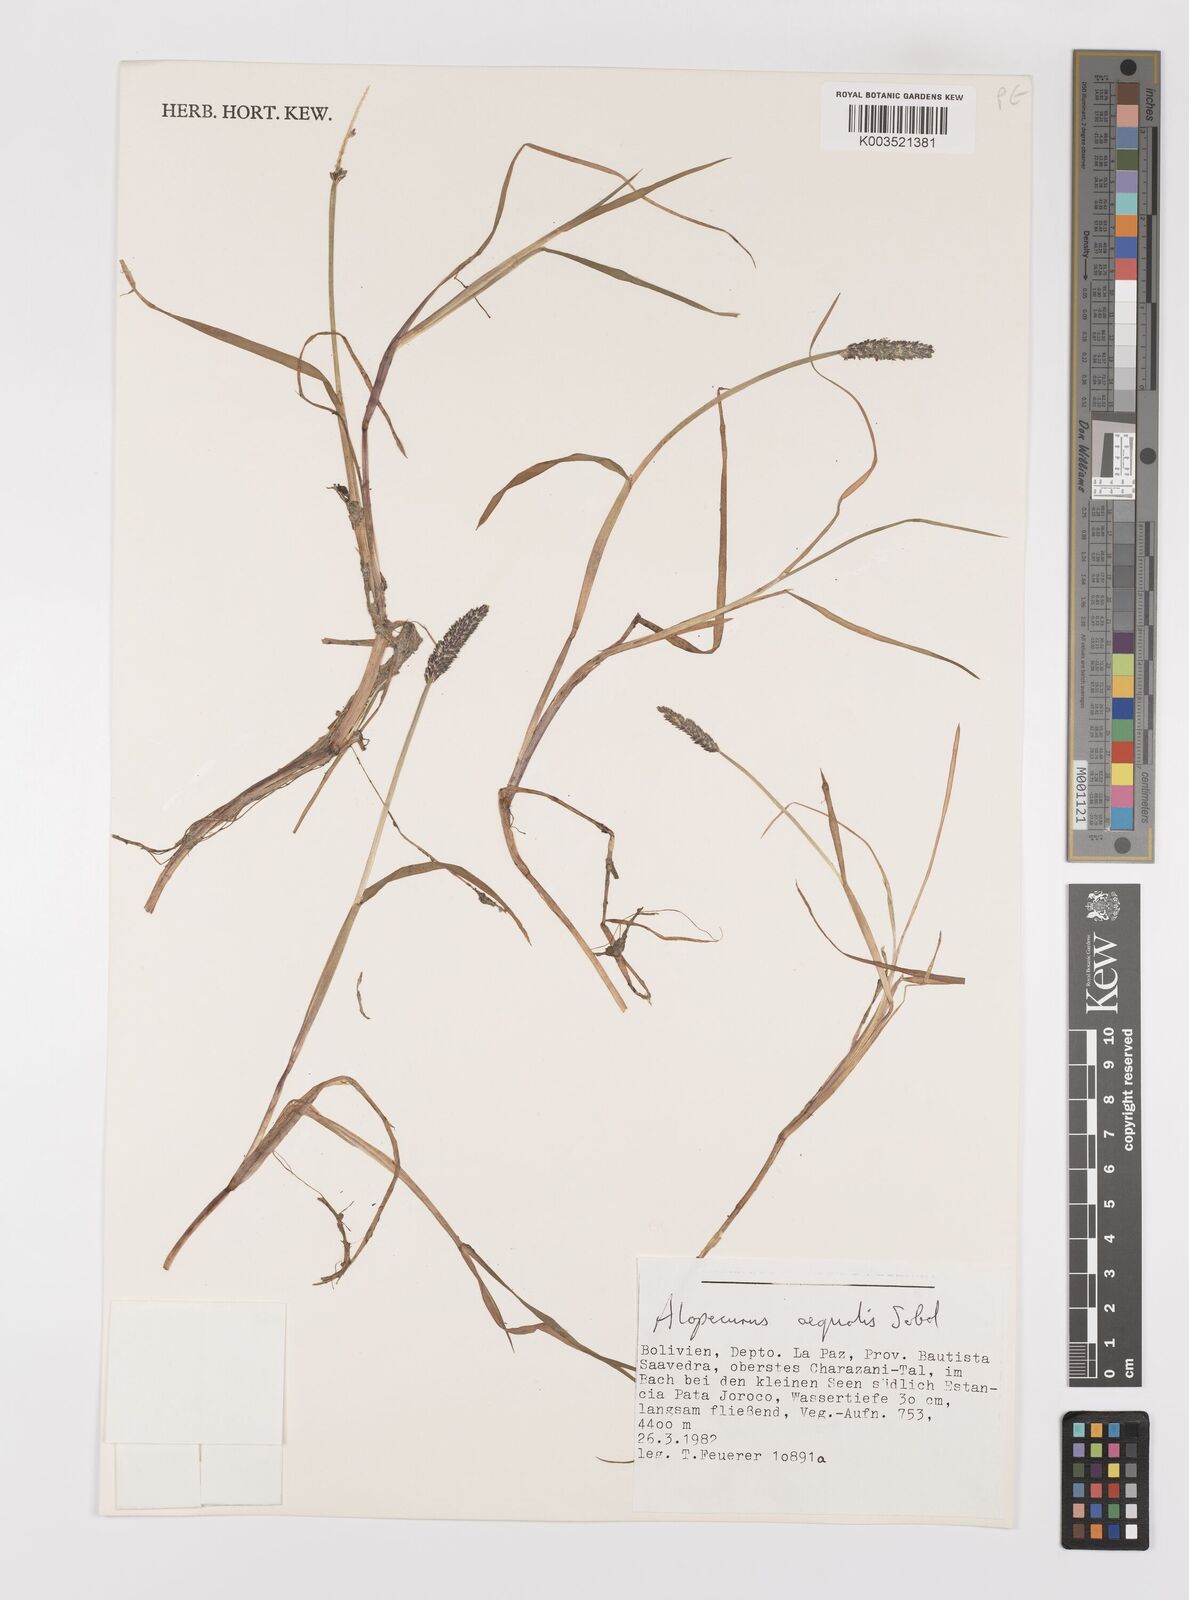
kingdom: Plantae
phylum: Tracheophyta
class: Liliopsida
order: Poales
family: Poaceae
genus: Alopecurus
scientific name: Alopecurus hitchcockii
